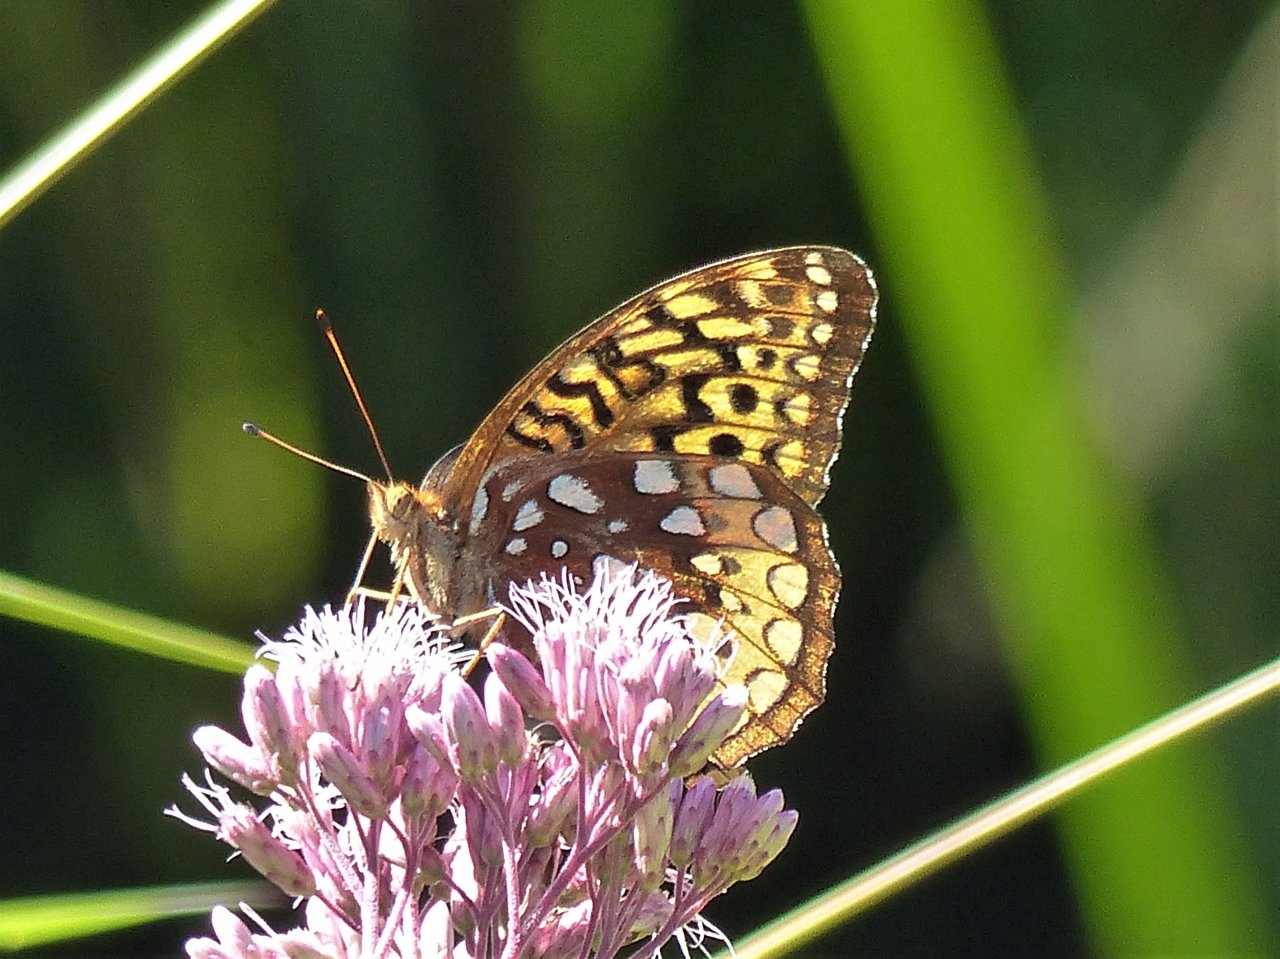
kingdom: Animalia
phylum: Arthropoda
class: Insecta
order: Lepidoptera
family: Nymphalidae
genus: Speyeria
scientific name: Speyeria cybele
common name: Great Spangled Fritillary
